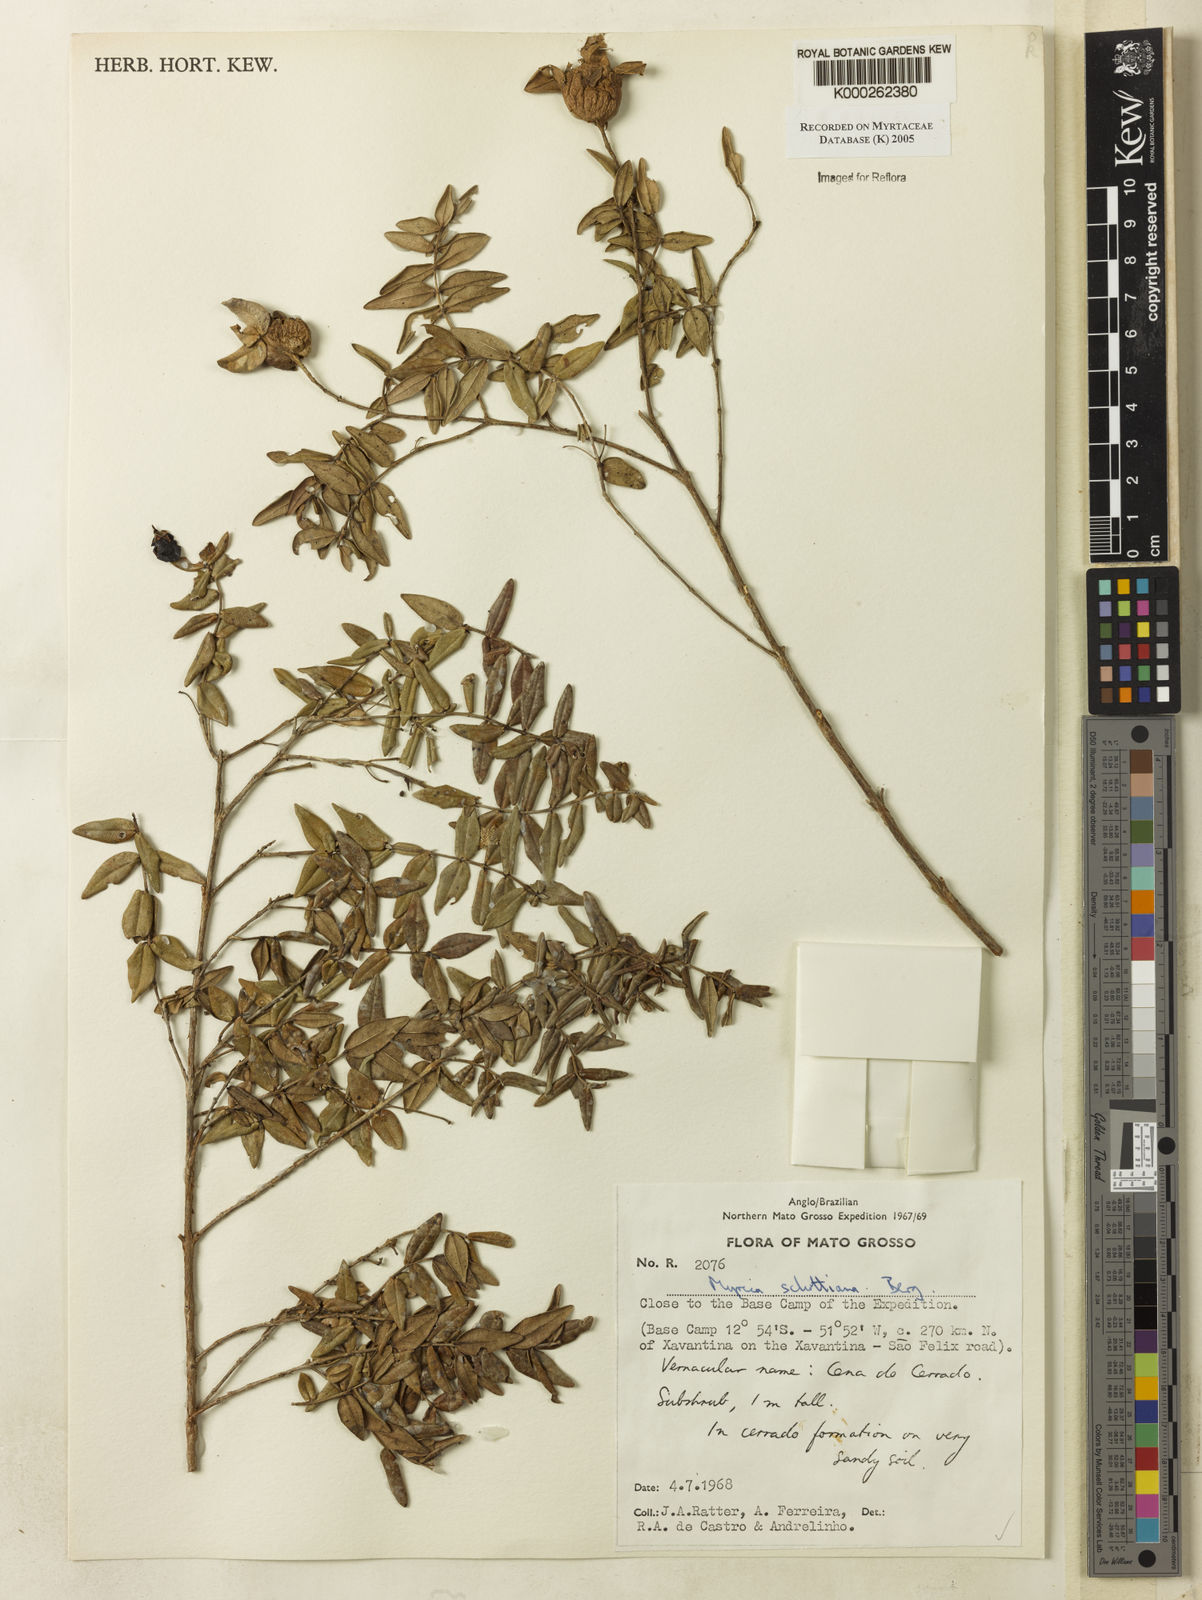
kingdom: Plantae
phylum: Tracheophyta
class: Magnoliopsida
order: Myrtales
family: Myrtaceae
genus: Myrcia
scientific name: Myrcia schottiana
